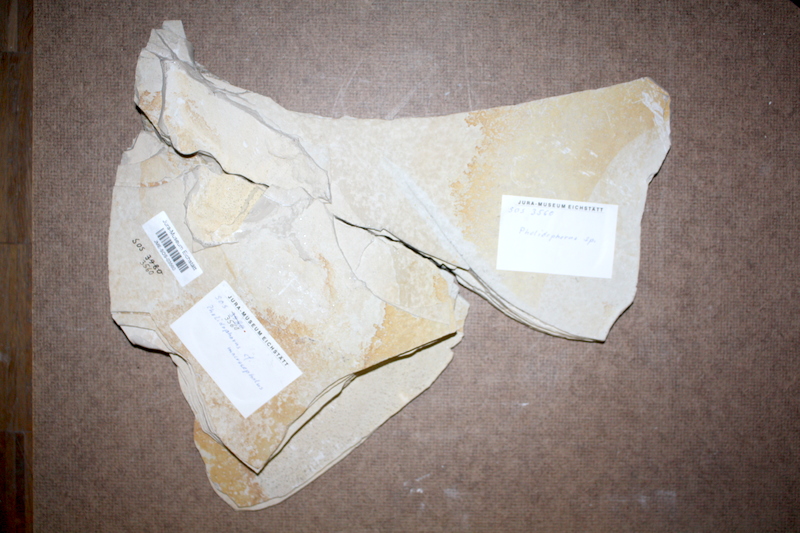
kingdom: Animalia
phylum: Chordata
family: Ankylophoridae
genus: Siemensichthys
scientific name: Siemensichthys macrocephalus
